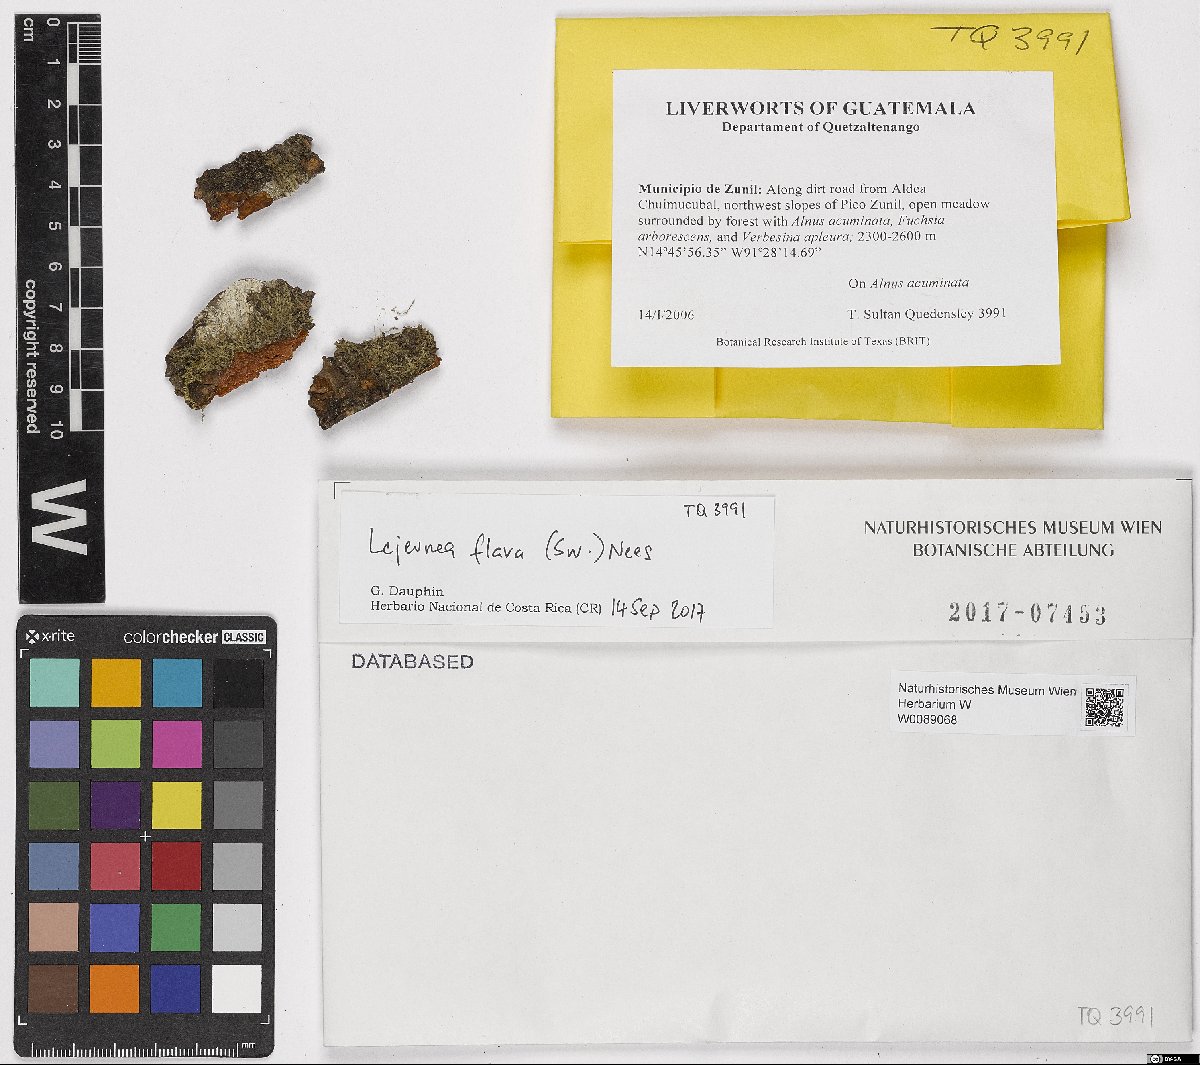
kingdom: Plantae
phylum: Marchantiophyta
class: Jungermanniopsida
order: Porellales
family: Lejeuneaceae
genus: Lejeunea
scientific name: Lejeunea flava
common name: Yellow pouncewort
